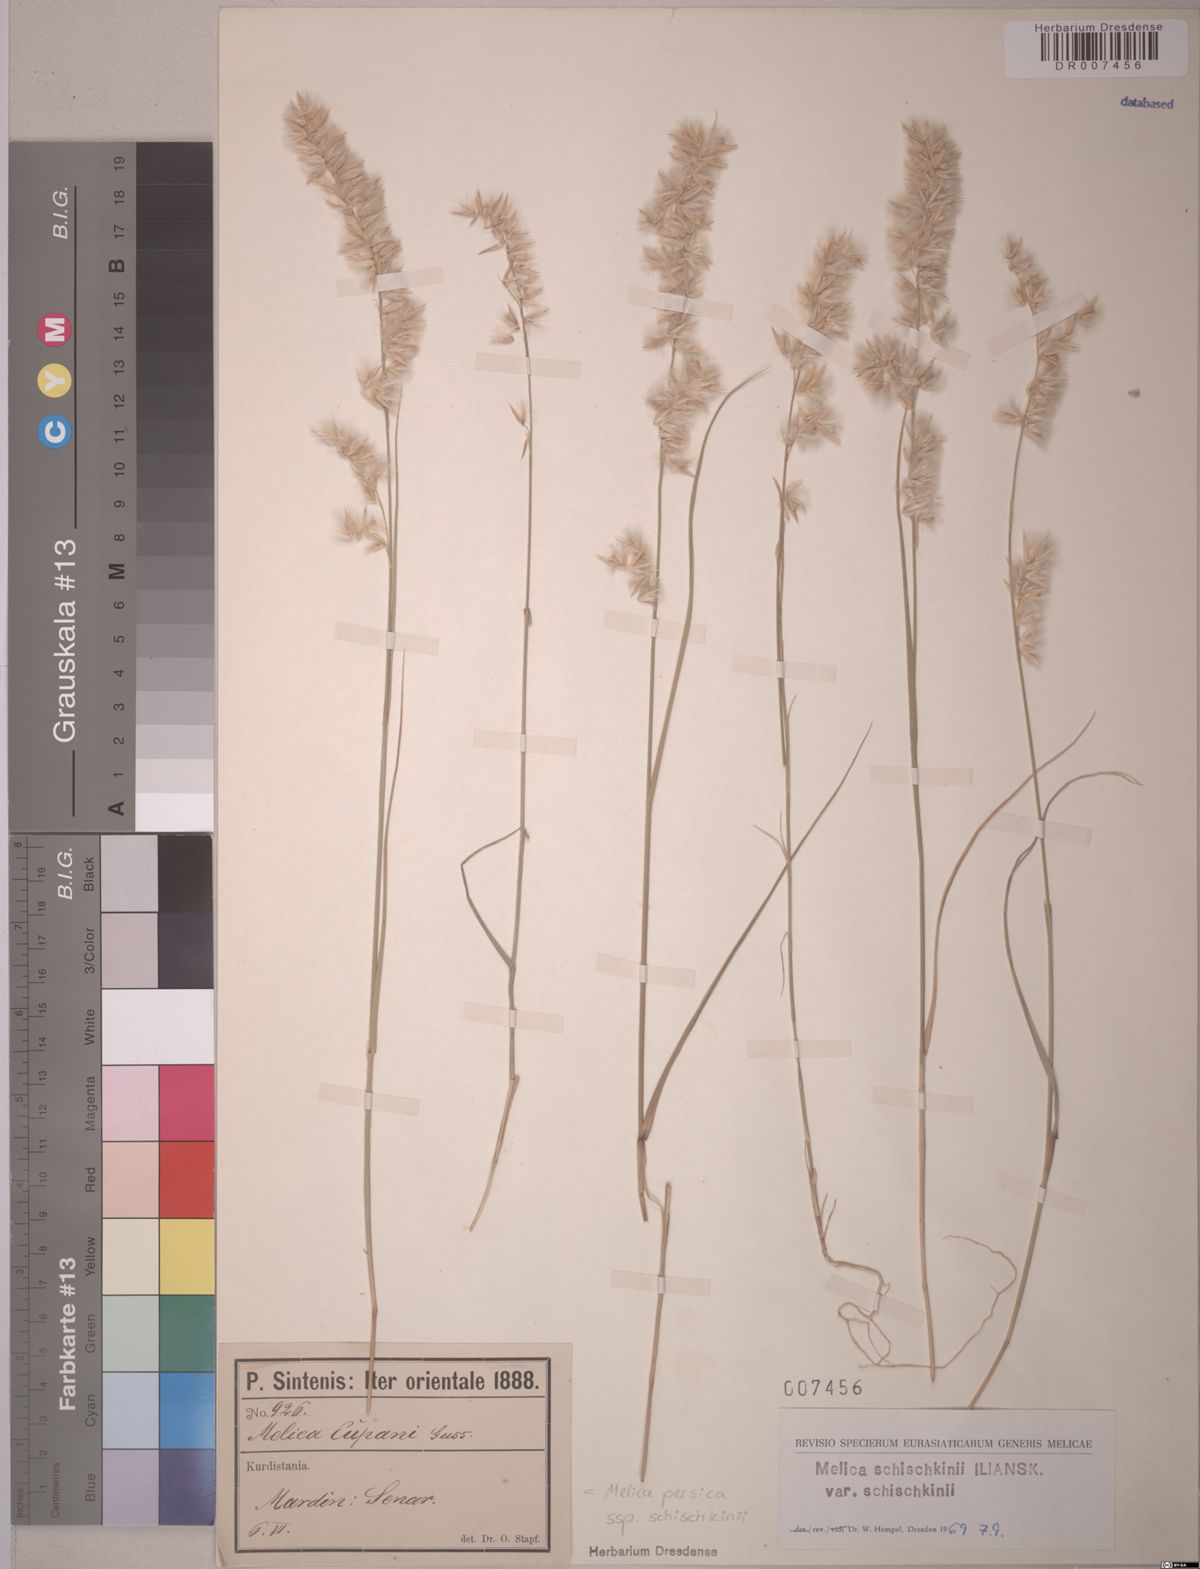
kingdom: Plantae
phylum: Tracheophyta
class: Liliopsida
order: Poales
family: Poaceae
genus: Melica
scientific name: Melica persica
